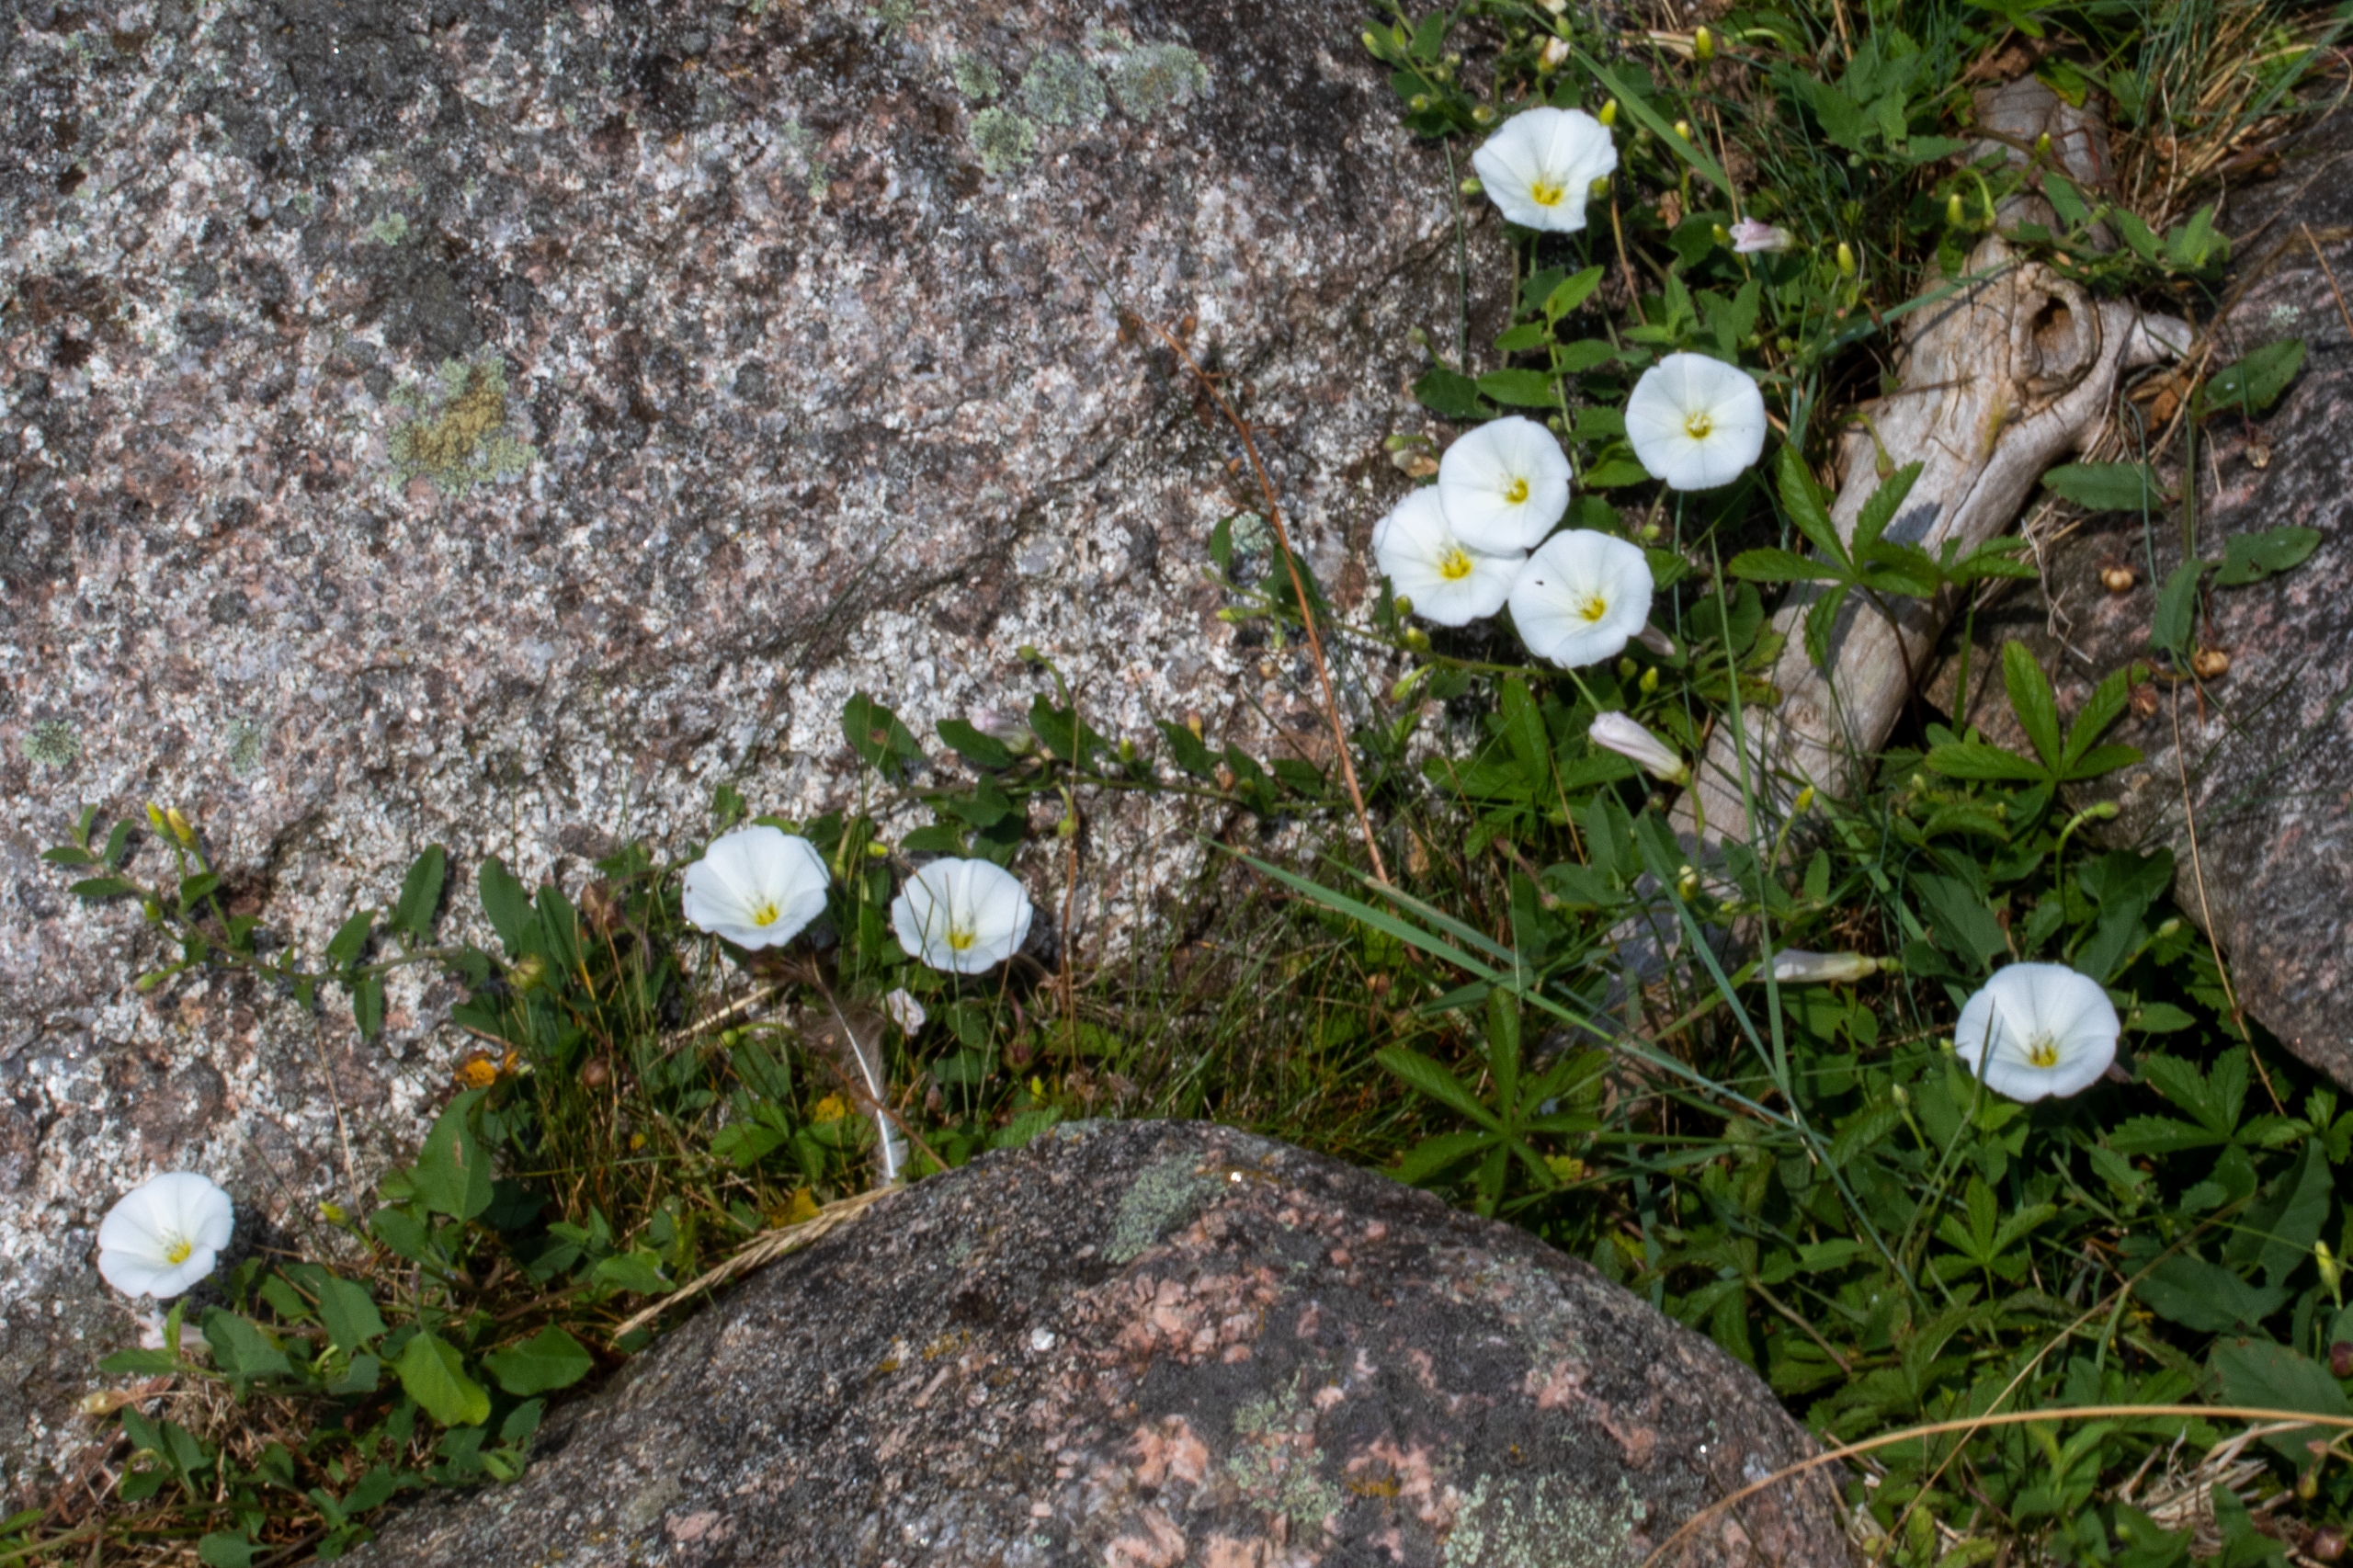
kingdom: Plantae
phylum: Tracheophyta
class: Magnoliopsida
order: Solanales
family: Convolvulaceae
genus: Convolvulus
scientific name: Convolvulus arvensis
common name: Ager-snerle
